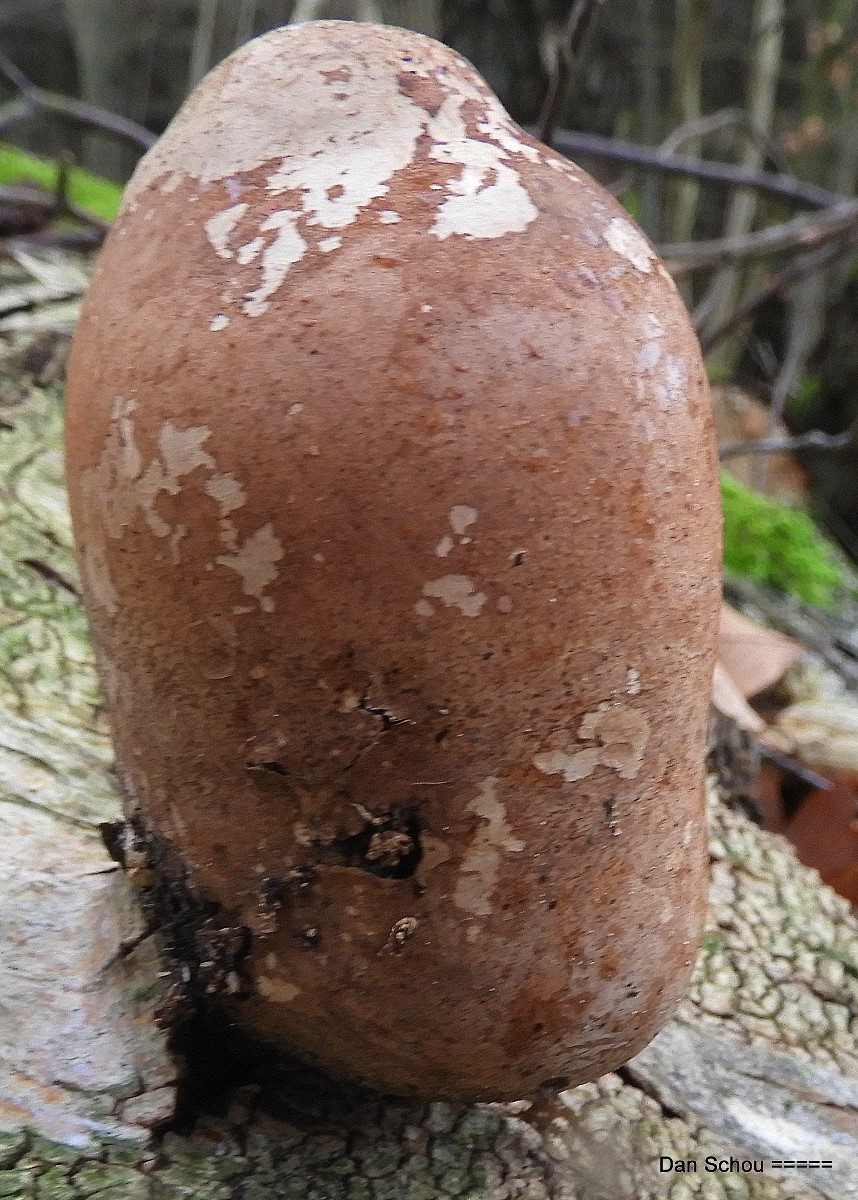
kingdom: Fungi
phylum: Basidiomycota
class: Agaricomycetes
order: Polyporales
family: Fomitopsidaceae
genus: Fomitopsis
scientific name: Fomitopsis betulina
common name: birkeporesvamp
